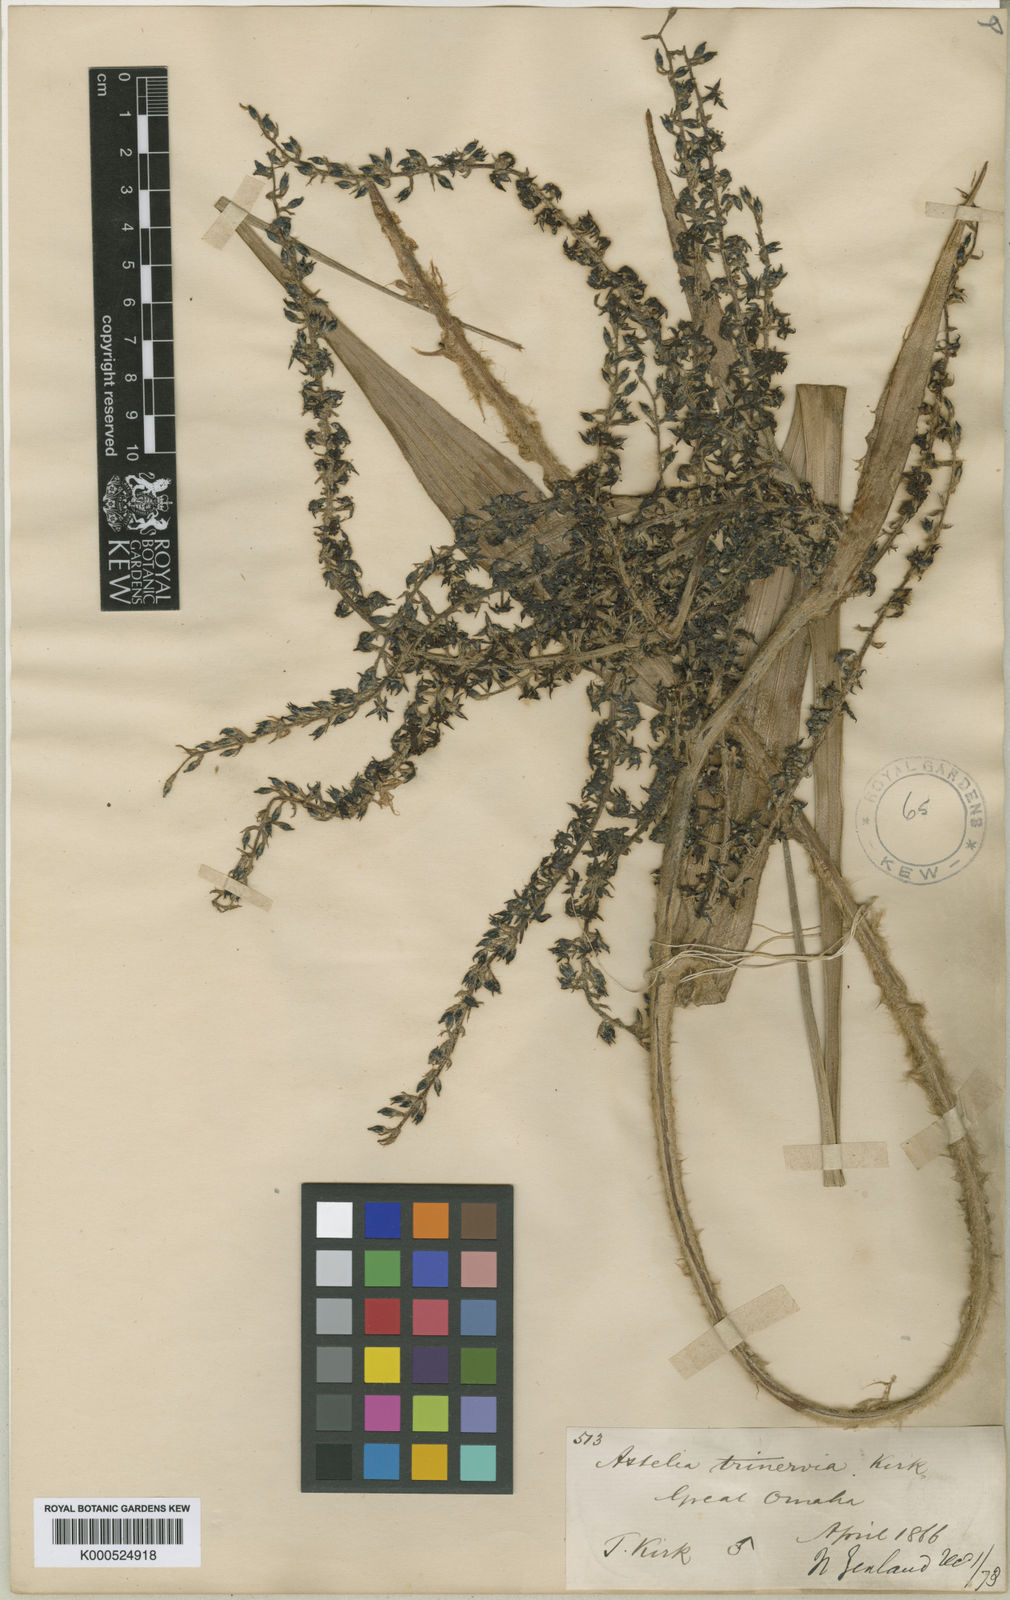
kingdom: Plantae
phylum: Tracheophyta
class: Liliopsida
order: Asparagales
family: Asteliaceae
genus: Astelia
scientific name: Astelia trinervia
